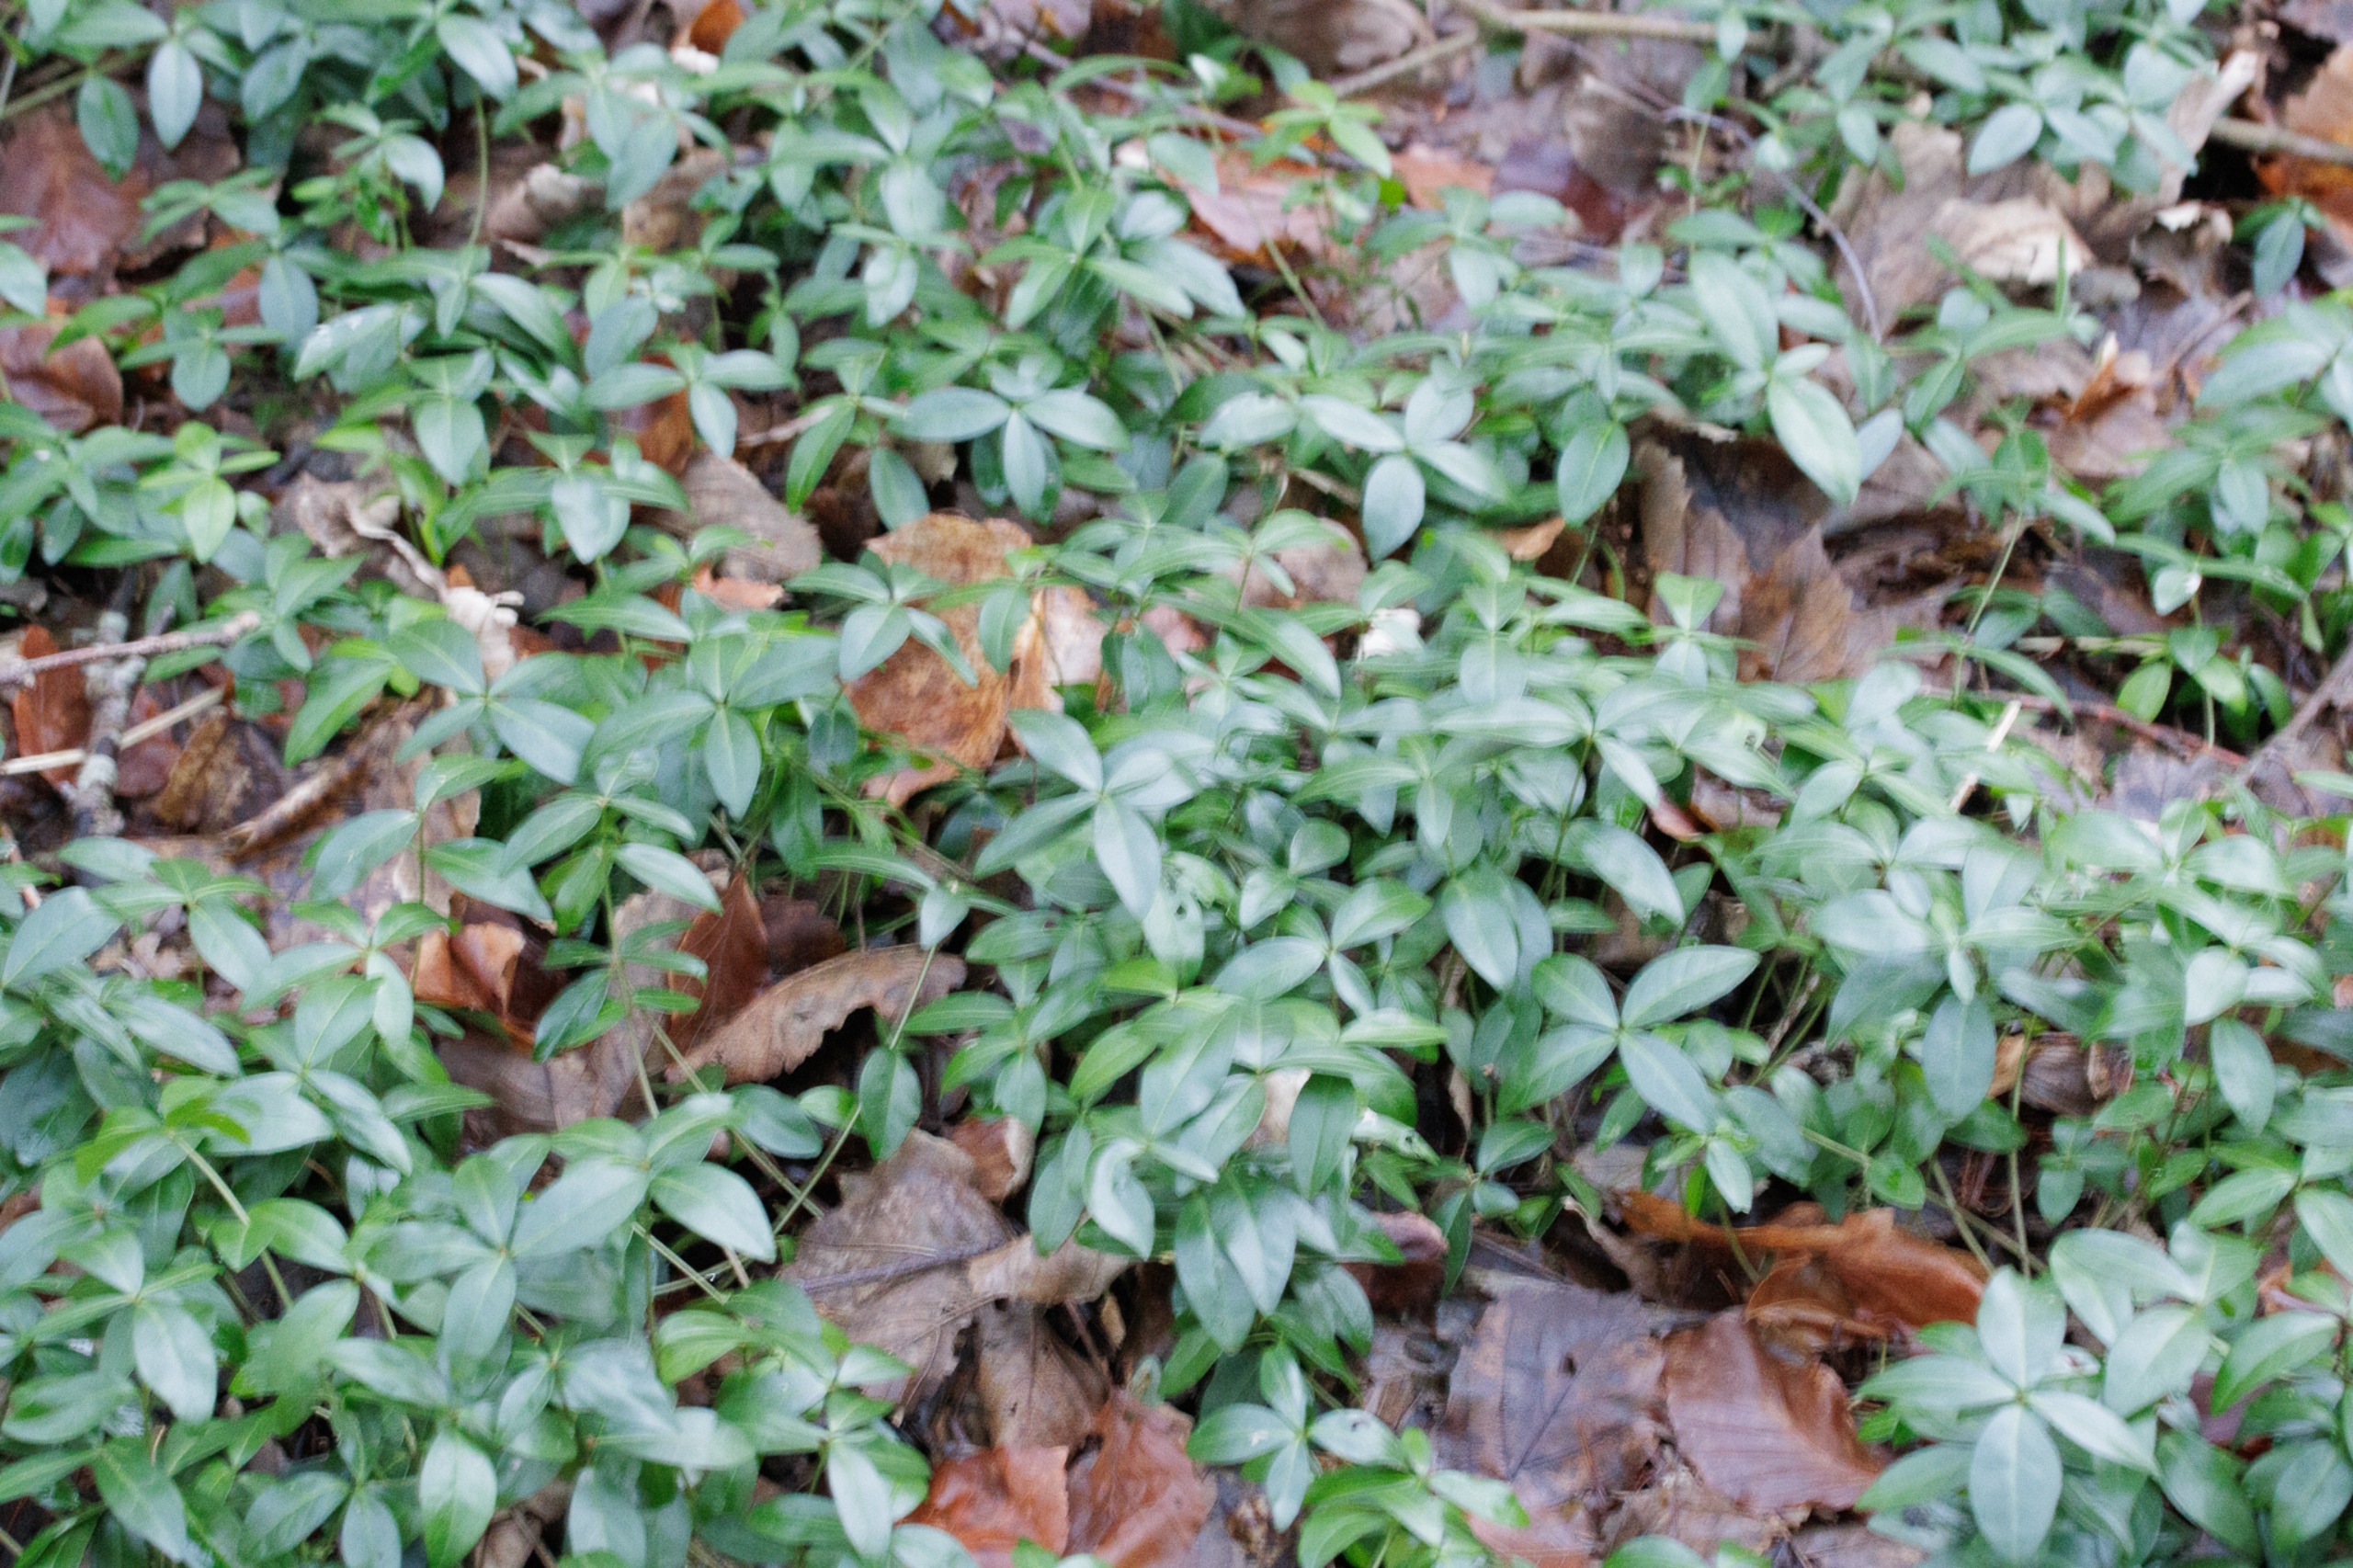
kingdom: Plantae
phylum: Tracheophyta
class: Magnoliopsida
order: Gentianales
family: Apocynaceae
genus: Vinca
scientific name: Vinca minor
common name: Liden singrøn
